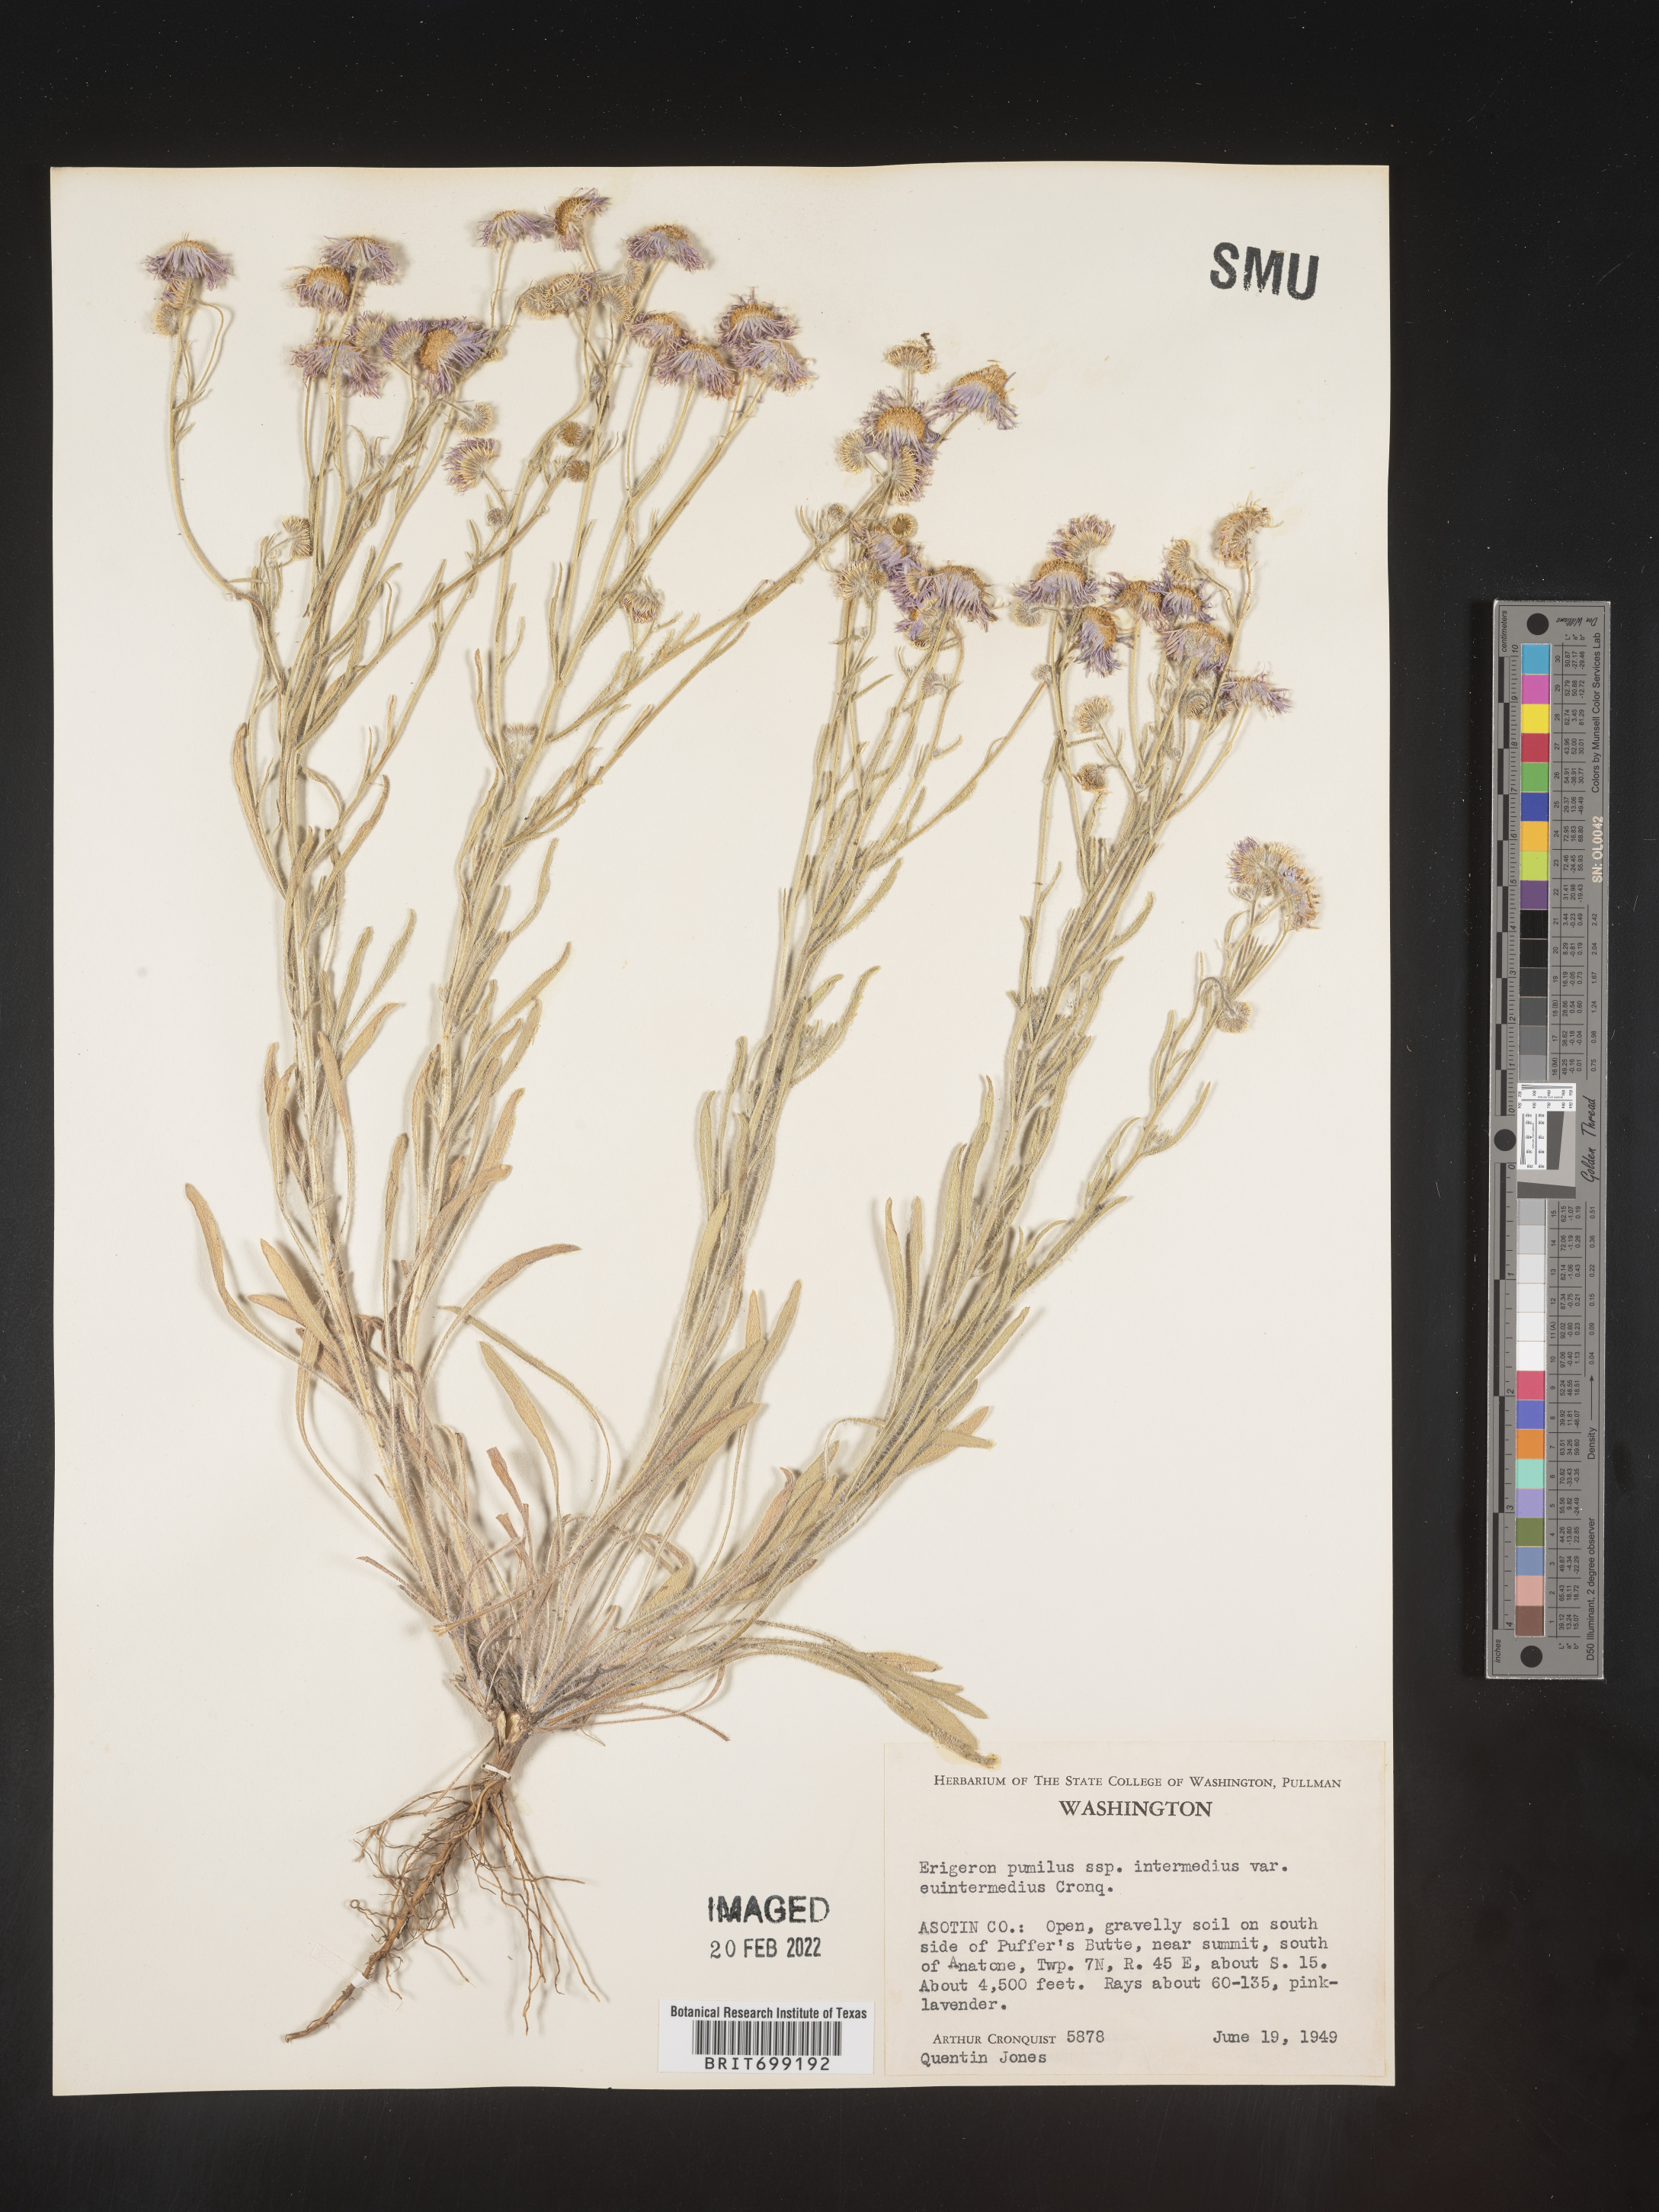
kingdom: Plantae
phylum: Tracheophyta
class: Magnoliopsida
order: Asterales
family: Asteraceae
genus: Erigeron
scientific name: Erigeron pumilus
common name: Shaggy fleabane
